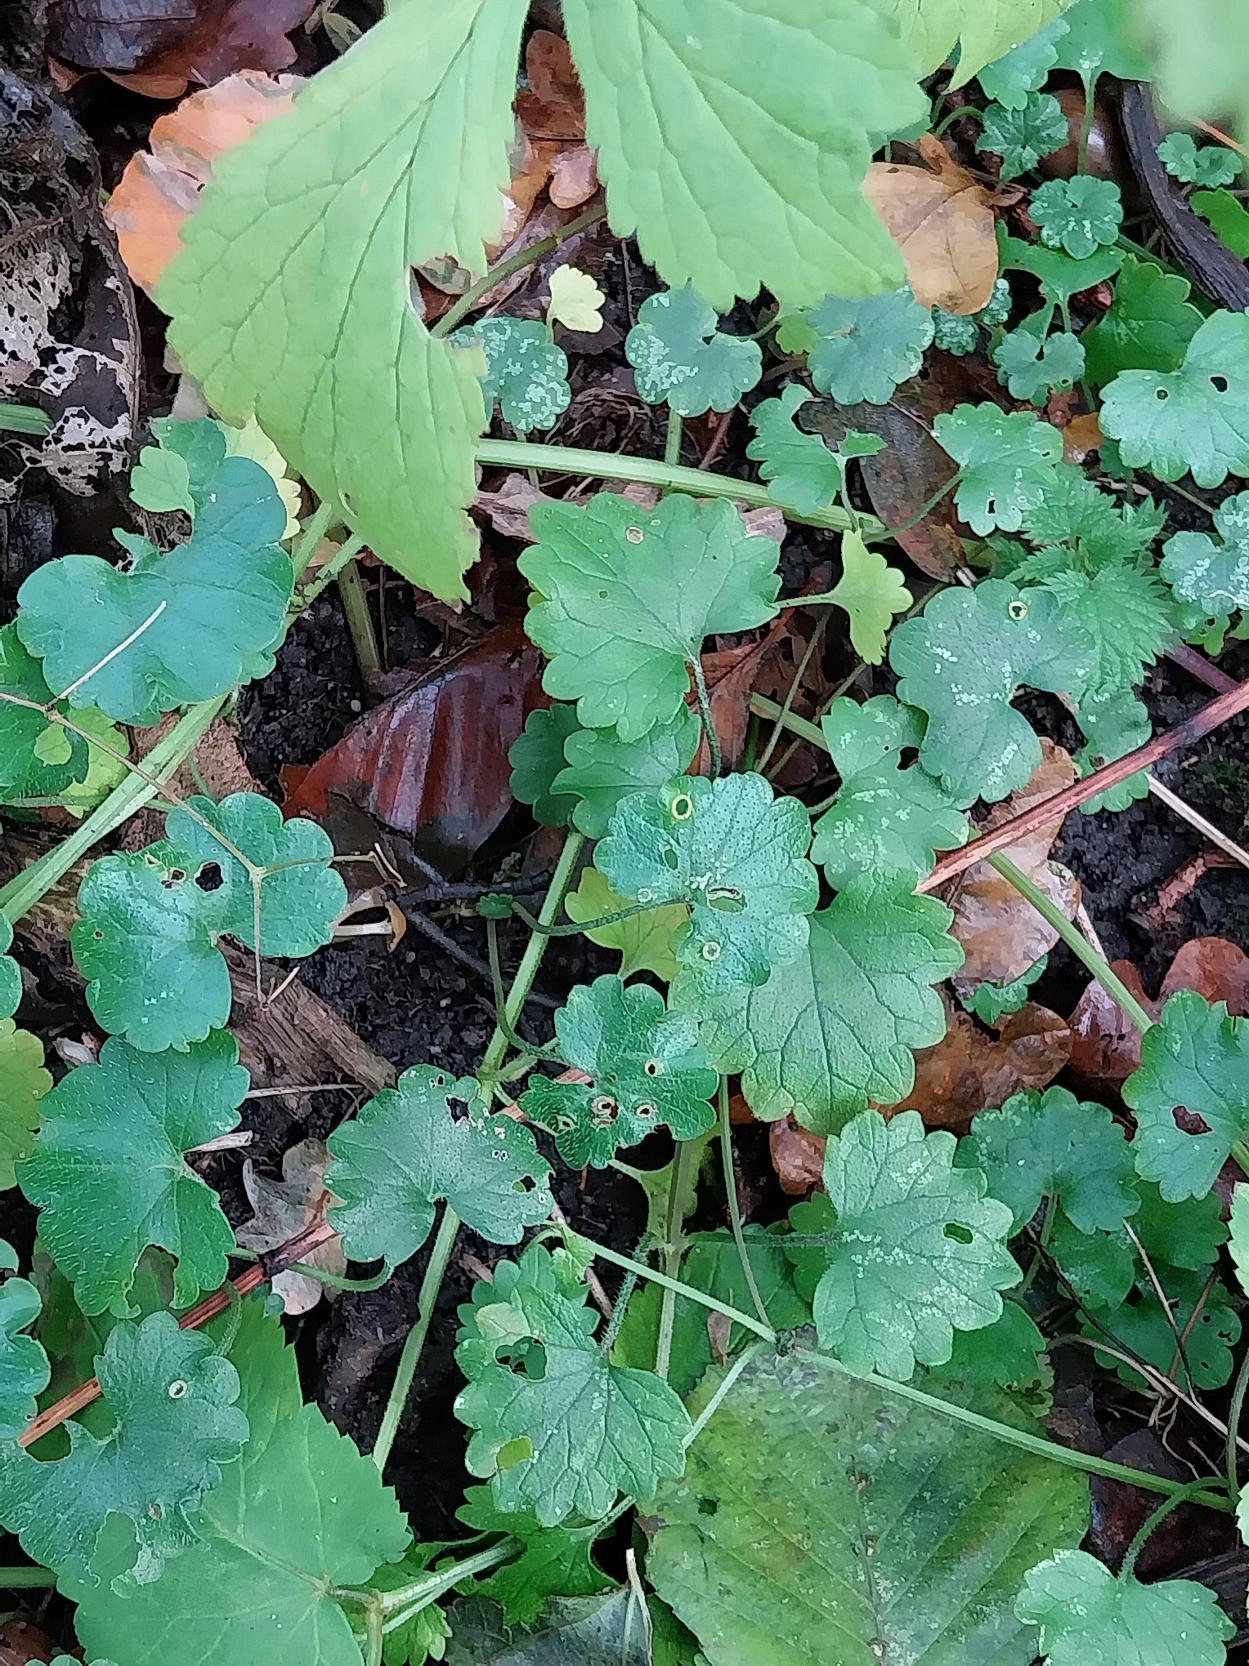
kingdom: Plantae
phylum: Tracheophyta
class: Magnoliopsida
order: Lamiales
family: Lamiaceae
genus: Glechoma
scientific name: Glechoma hederacea
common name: Korsknap
